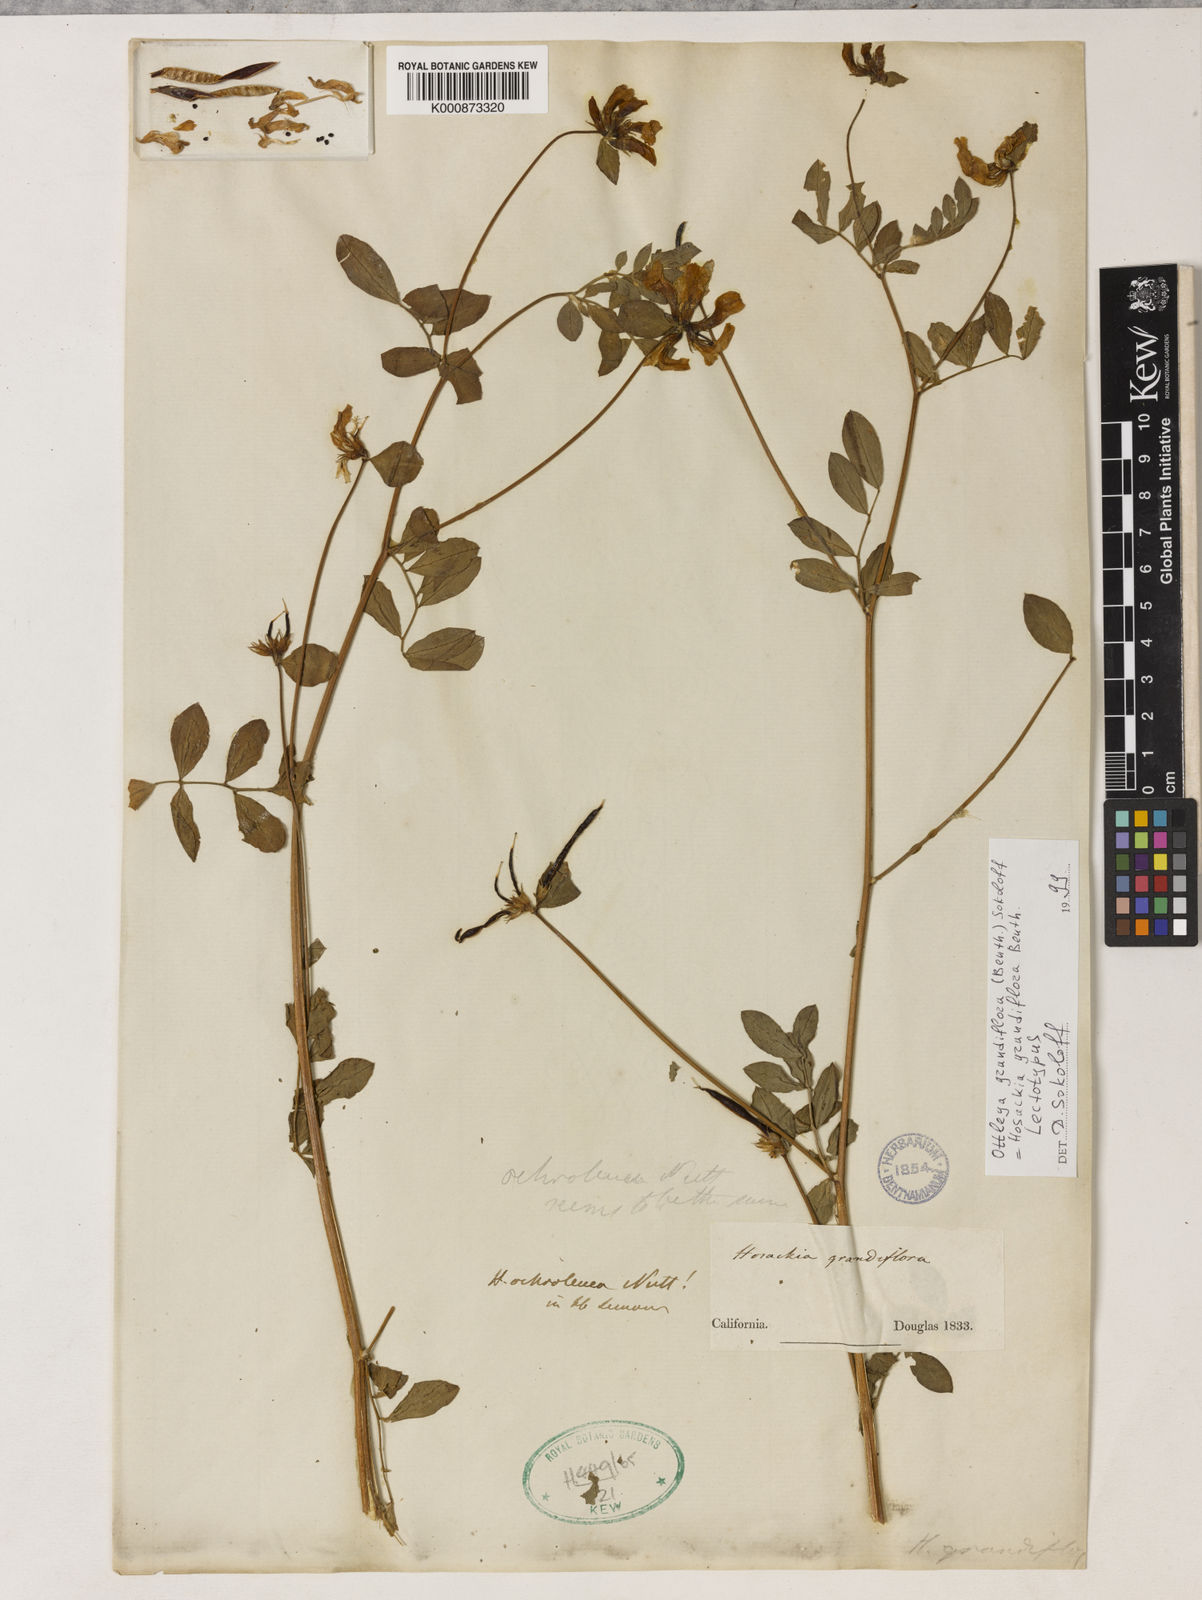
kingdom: Plantae
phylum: Tracheophyta
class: Magnoliopsida
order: Fabales
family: Fabaceae
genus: Acmispon
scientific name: Acmispon grandiflorus
